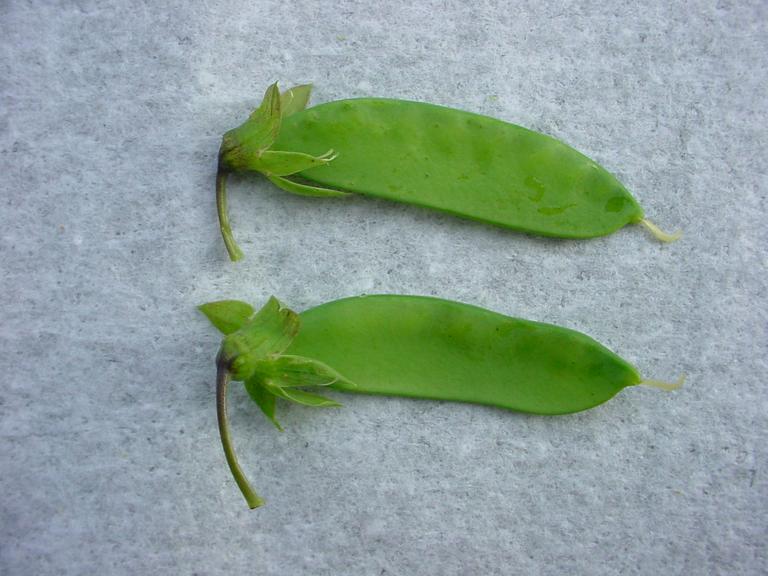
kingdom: Plantae
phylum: Tracheophyta
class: Magnoliopsida
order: Fabales
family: Fabaceae
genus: Lathyrus
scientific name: Lathyrus oleraceus
